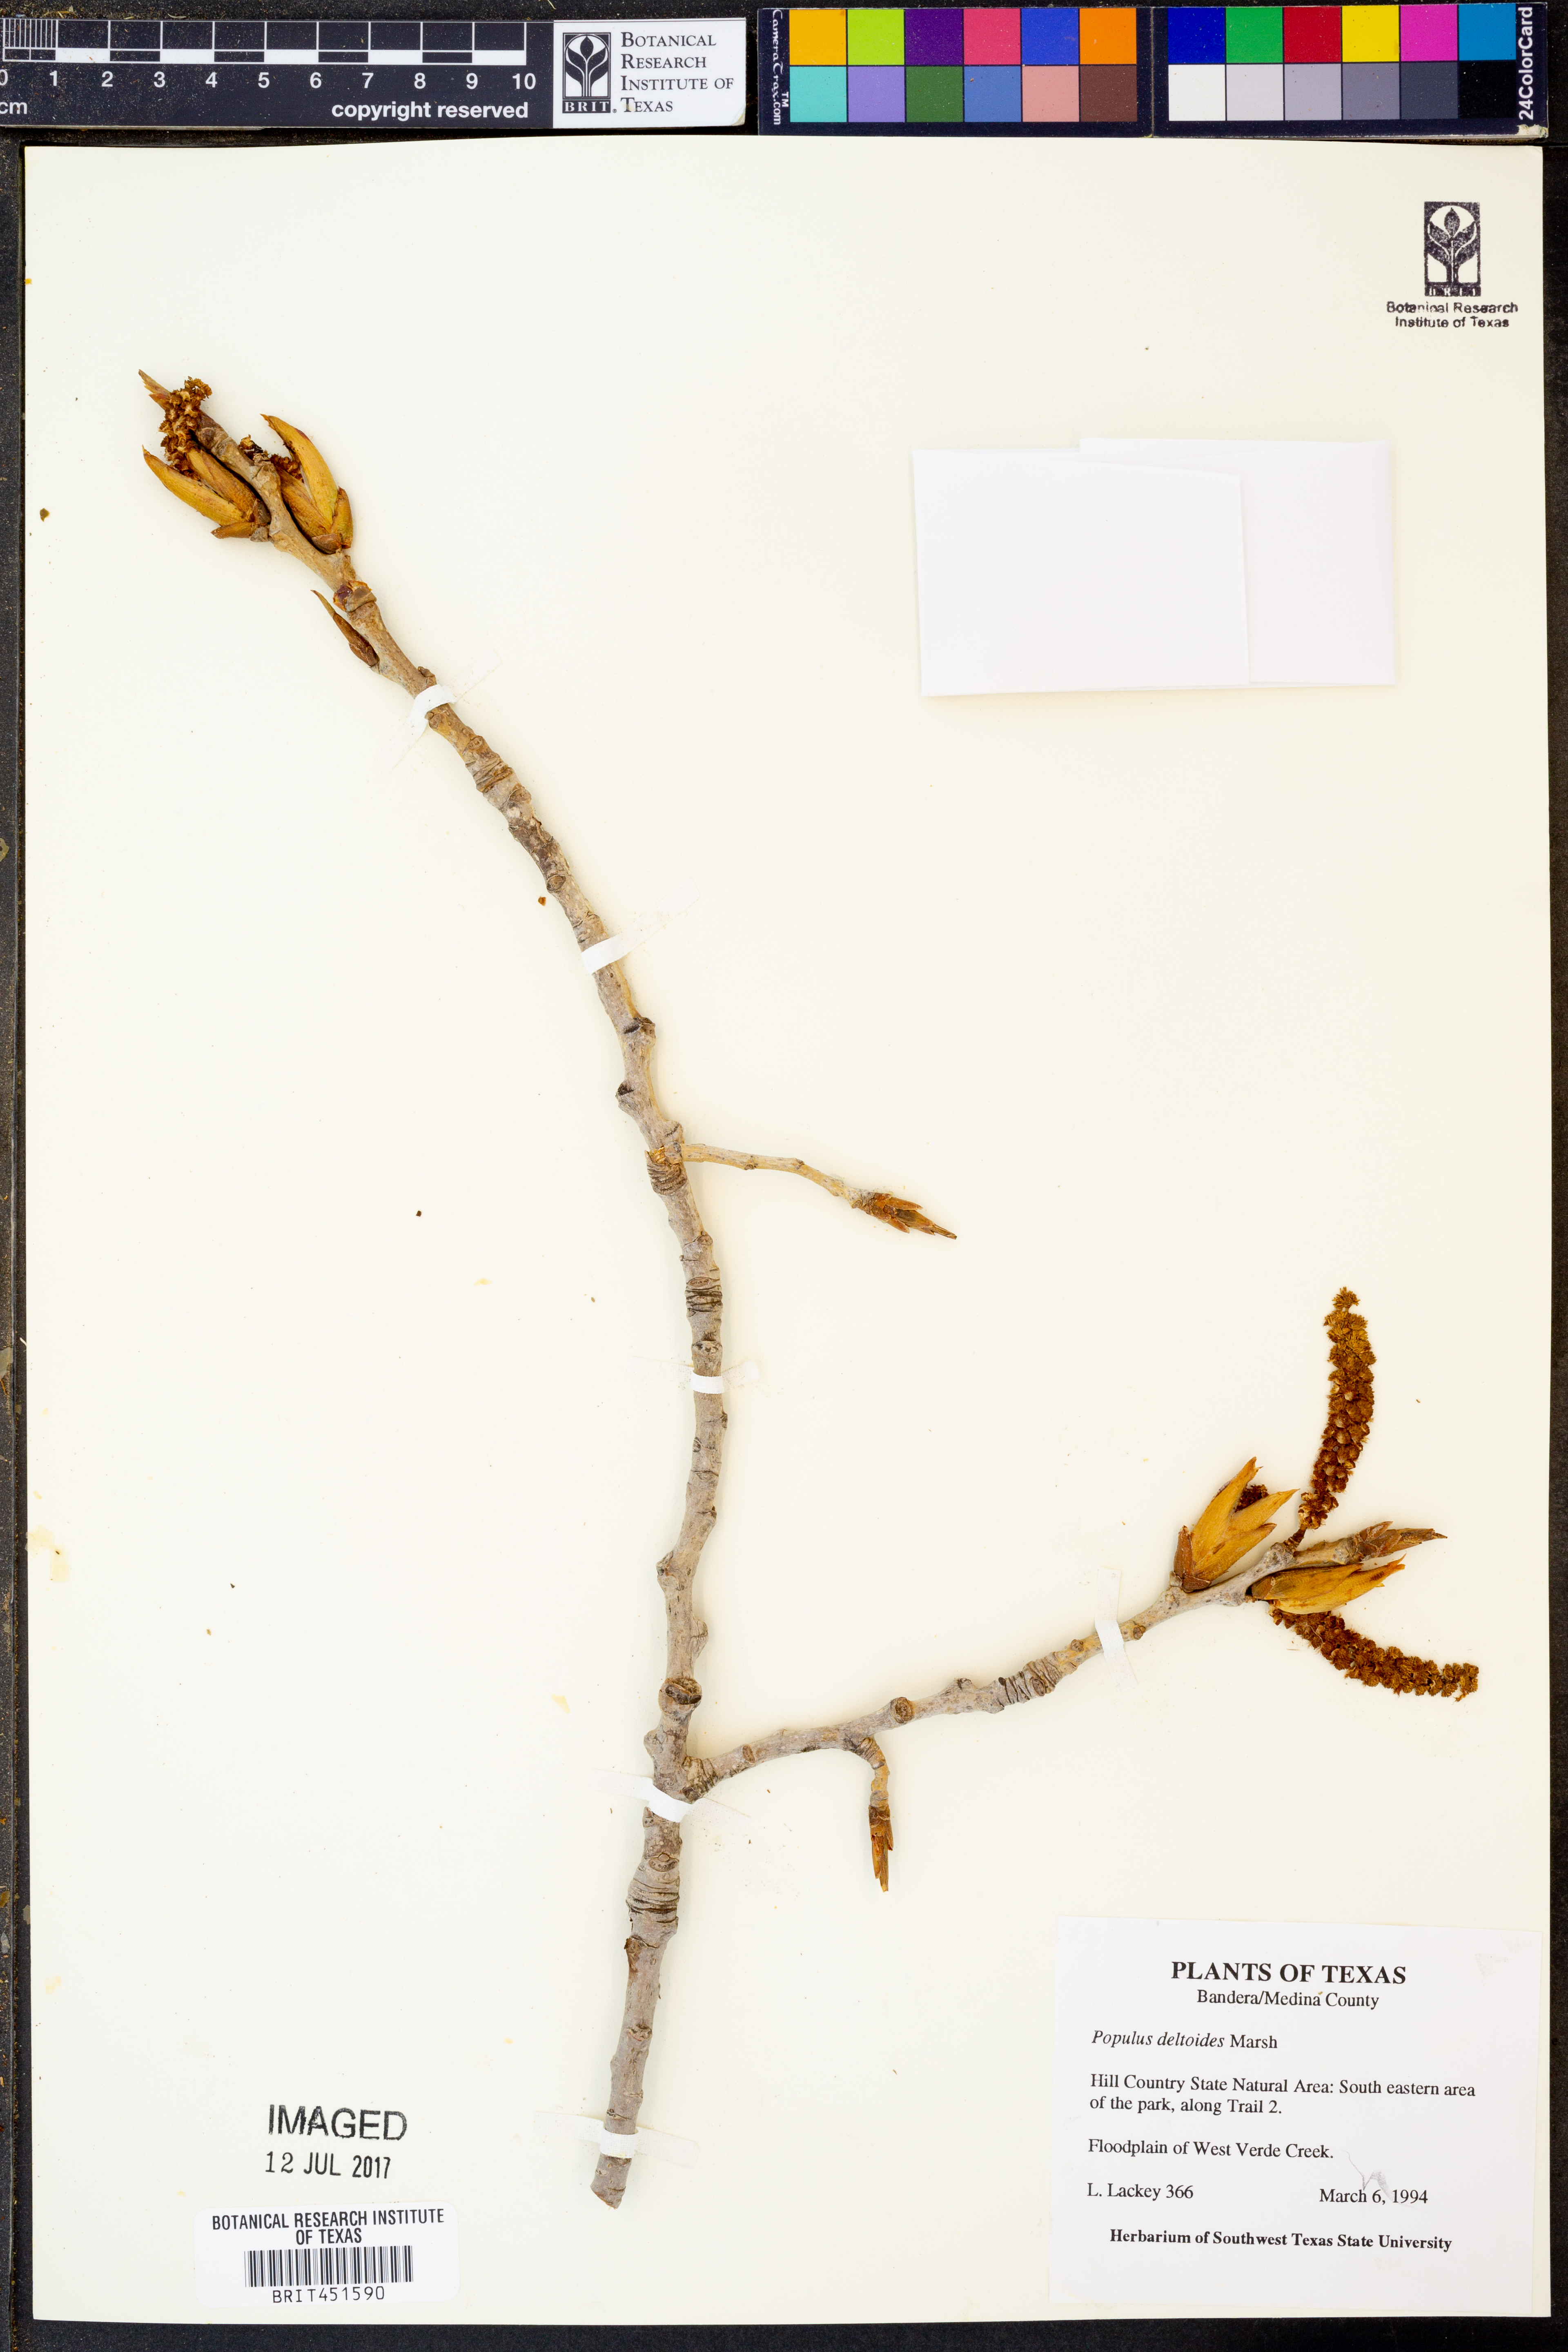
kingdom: Plantae
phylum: Tracheophyta
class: Magnoliopsida
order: Malpighiales
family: Salicaceae
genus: Populus
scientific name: Populus deltoides
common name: Eastern cottonwood
